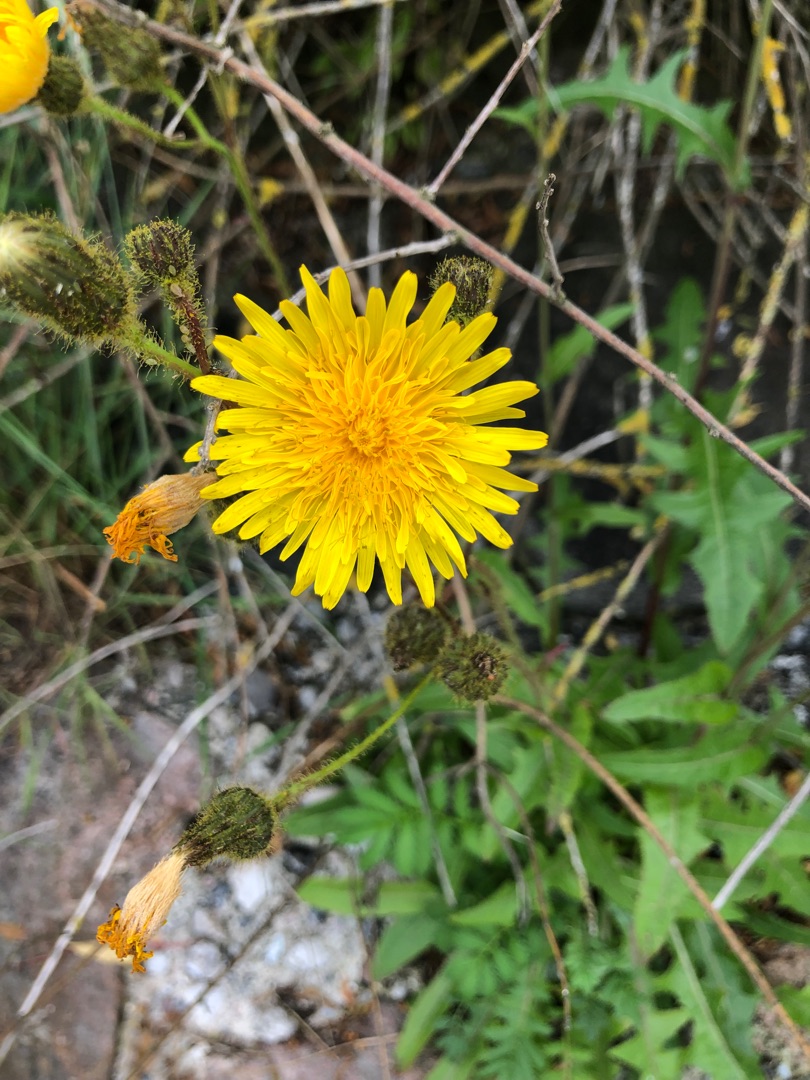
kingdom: Plantae
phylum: Tracheophyta
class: Magnoliopsida
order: Asterales
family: Asteraceae
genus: Sonchus
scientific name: Sonchus arvensis
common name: Ager-svinemælk
